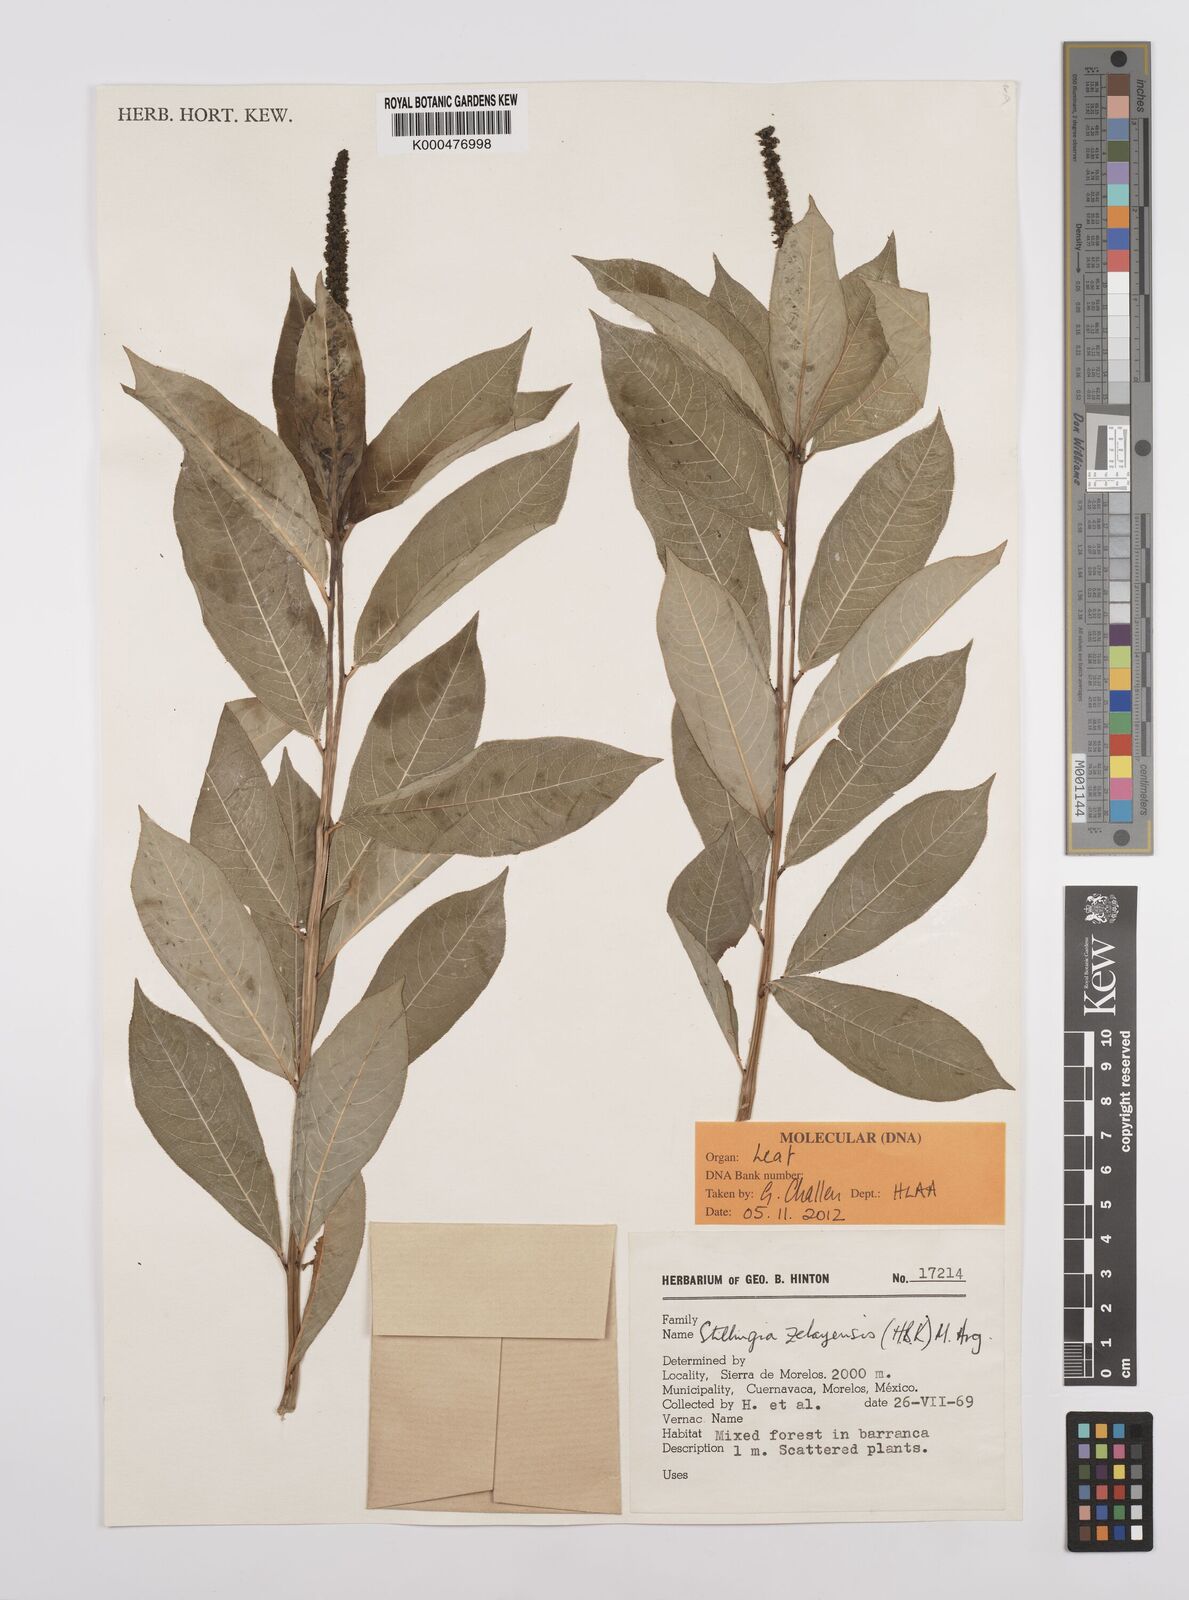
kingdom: Plantae
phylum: Tracheophyta
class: Magnoliopsida
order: Malpighiales
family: Euphorbiaceae
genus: Stillingia
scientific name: Stillingia
